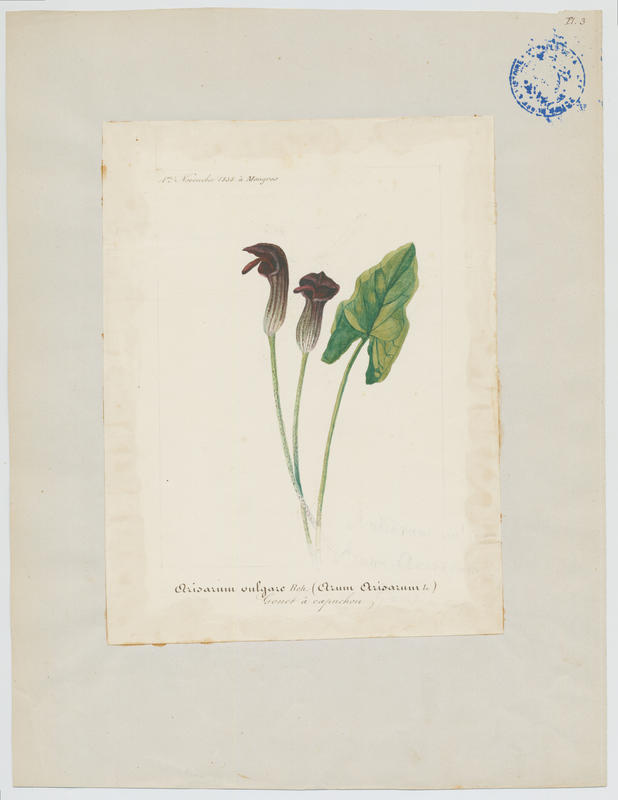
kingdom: Plantae
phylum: Tracheophyta
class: Liliopsida
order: Alismatales
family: Araceae
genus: Arisarum
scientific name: Arisarum vulgare
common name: Common arisarum
